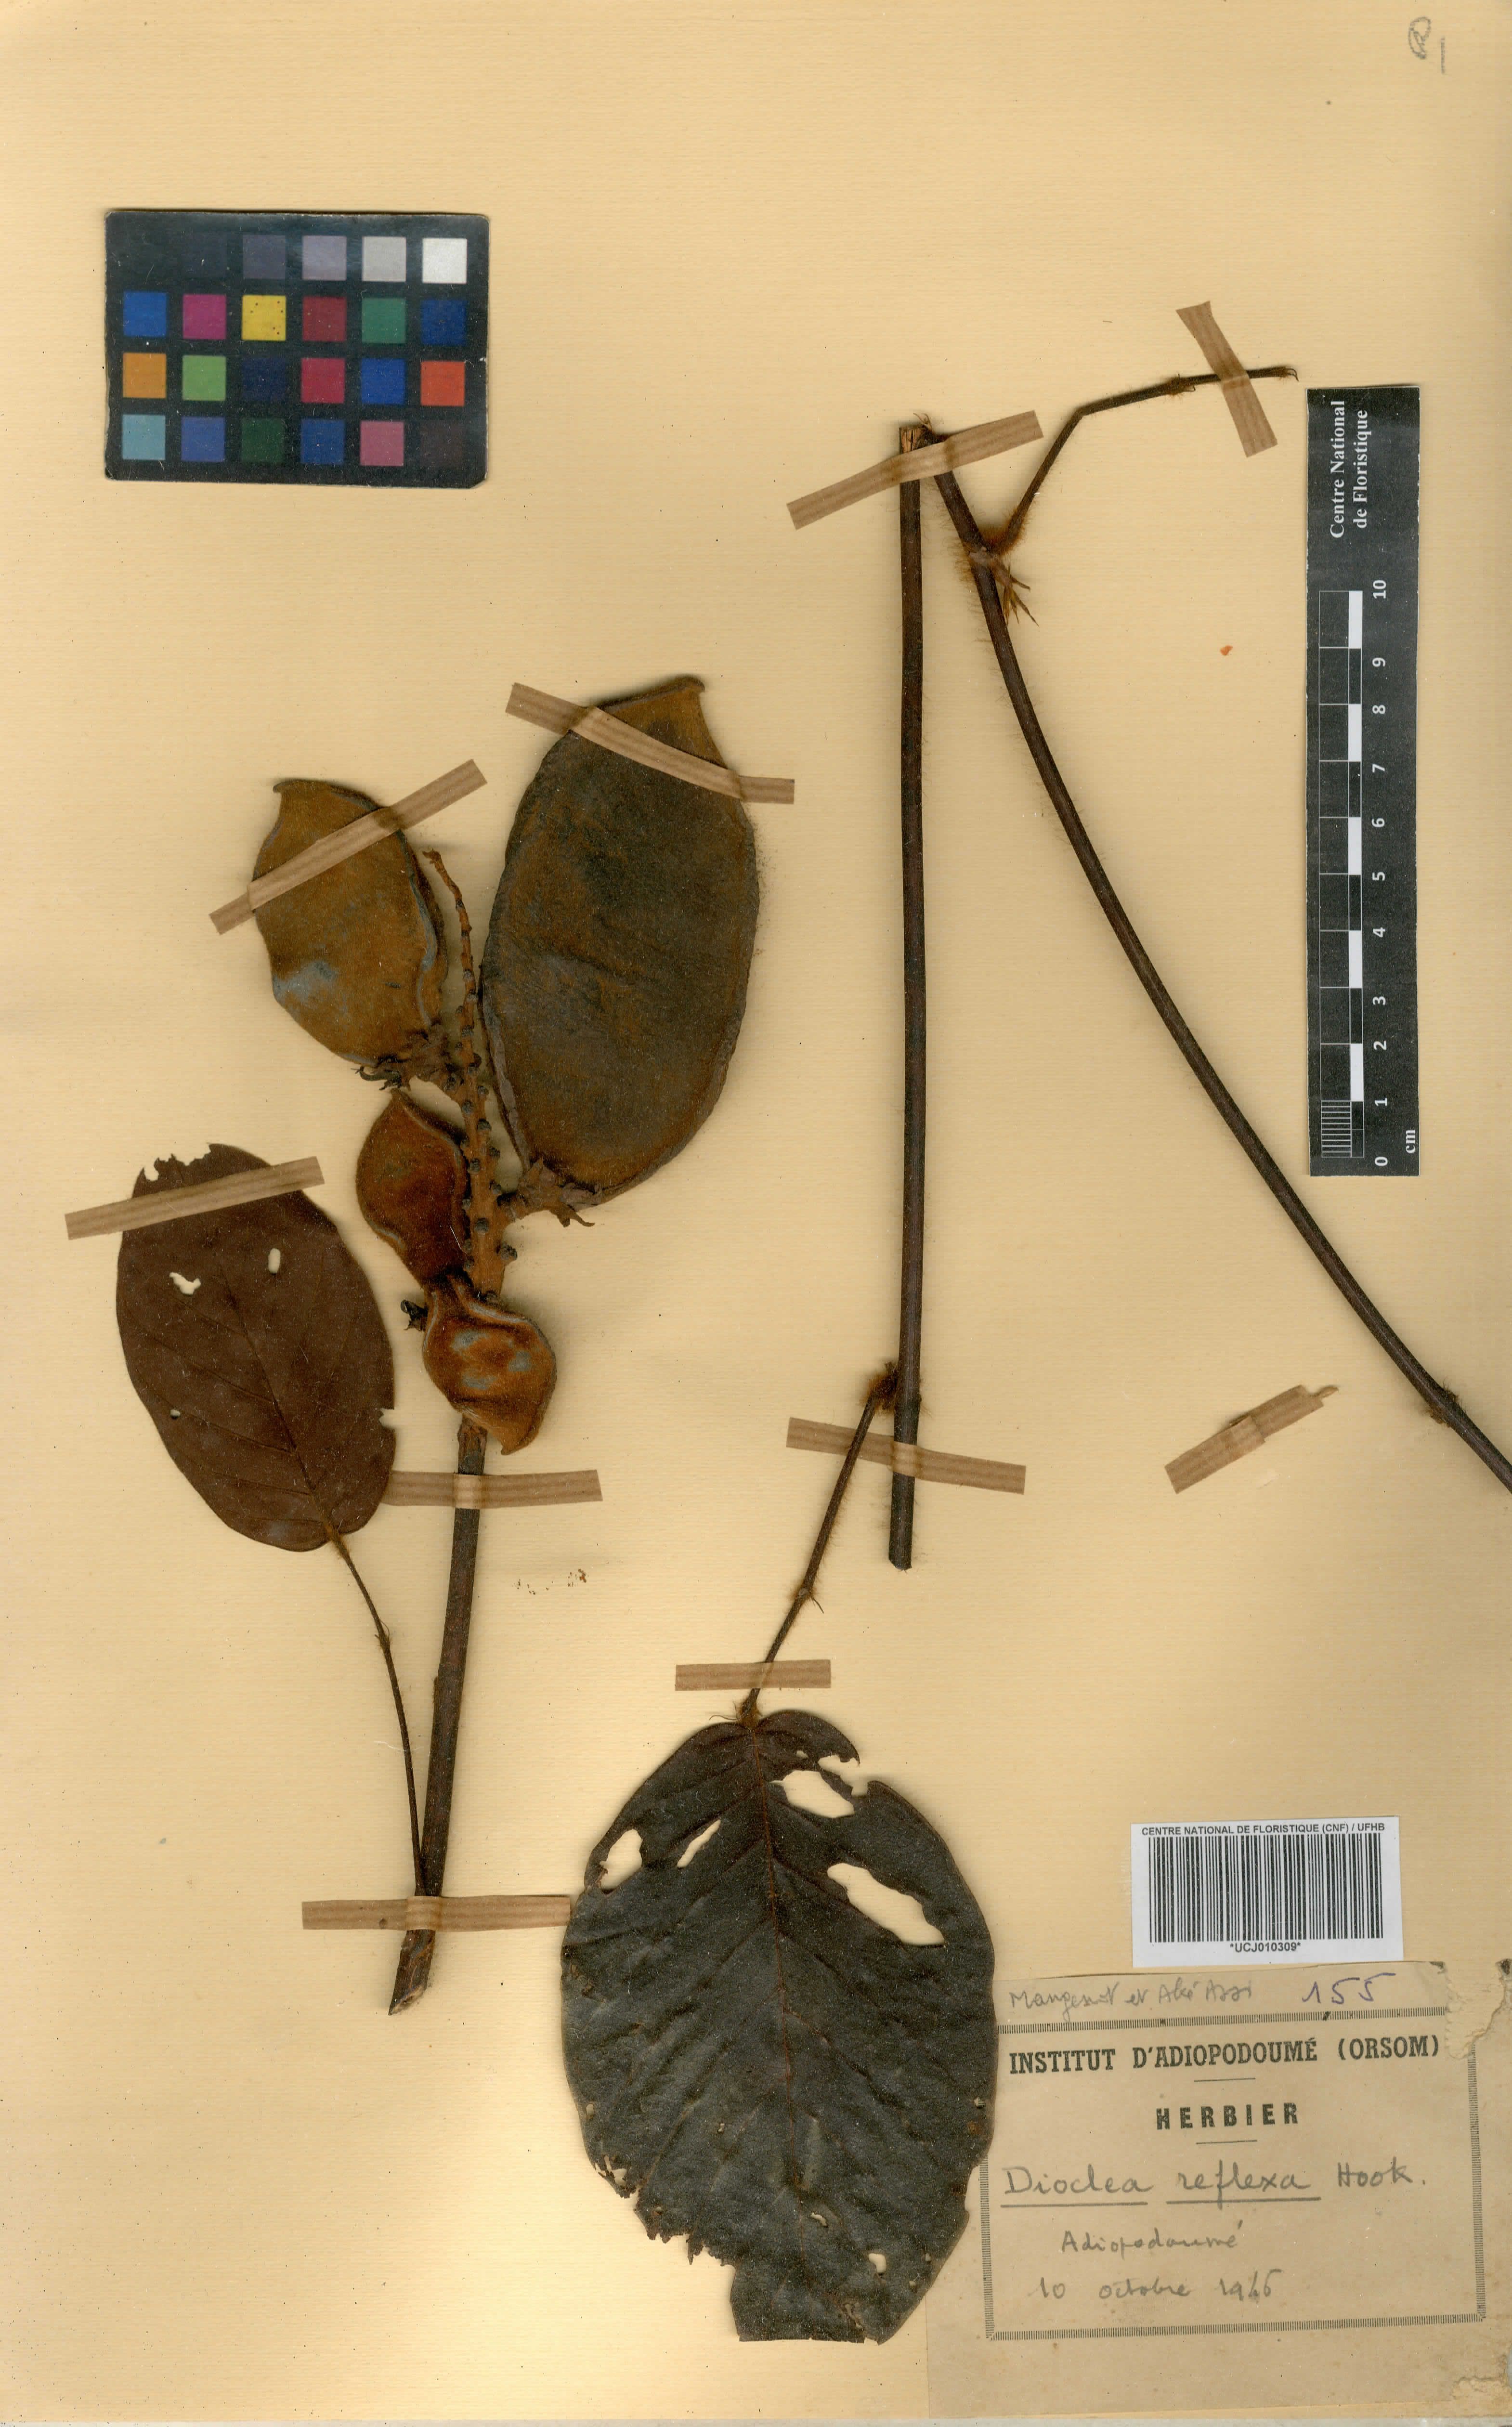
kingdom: Plantae
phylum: Tracheophyta
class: Magnoliopsida
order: Fabales
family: Fabaceae
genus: Macropsychanthus
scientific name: Macropsychanthus comosus
